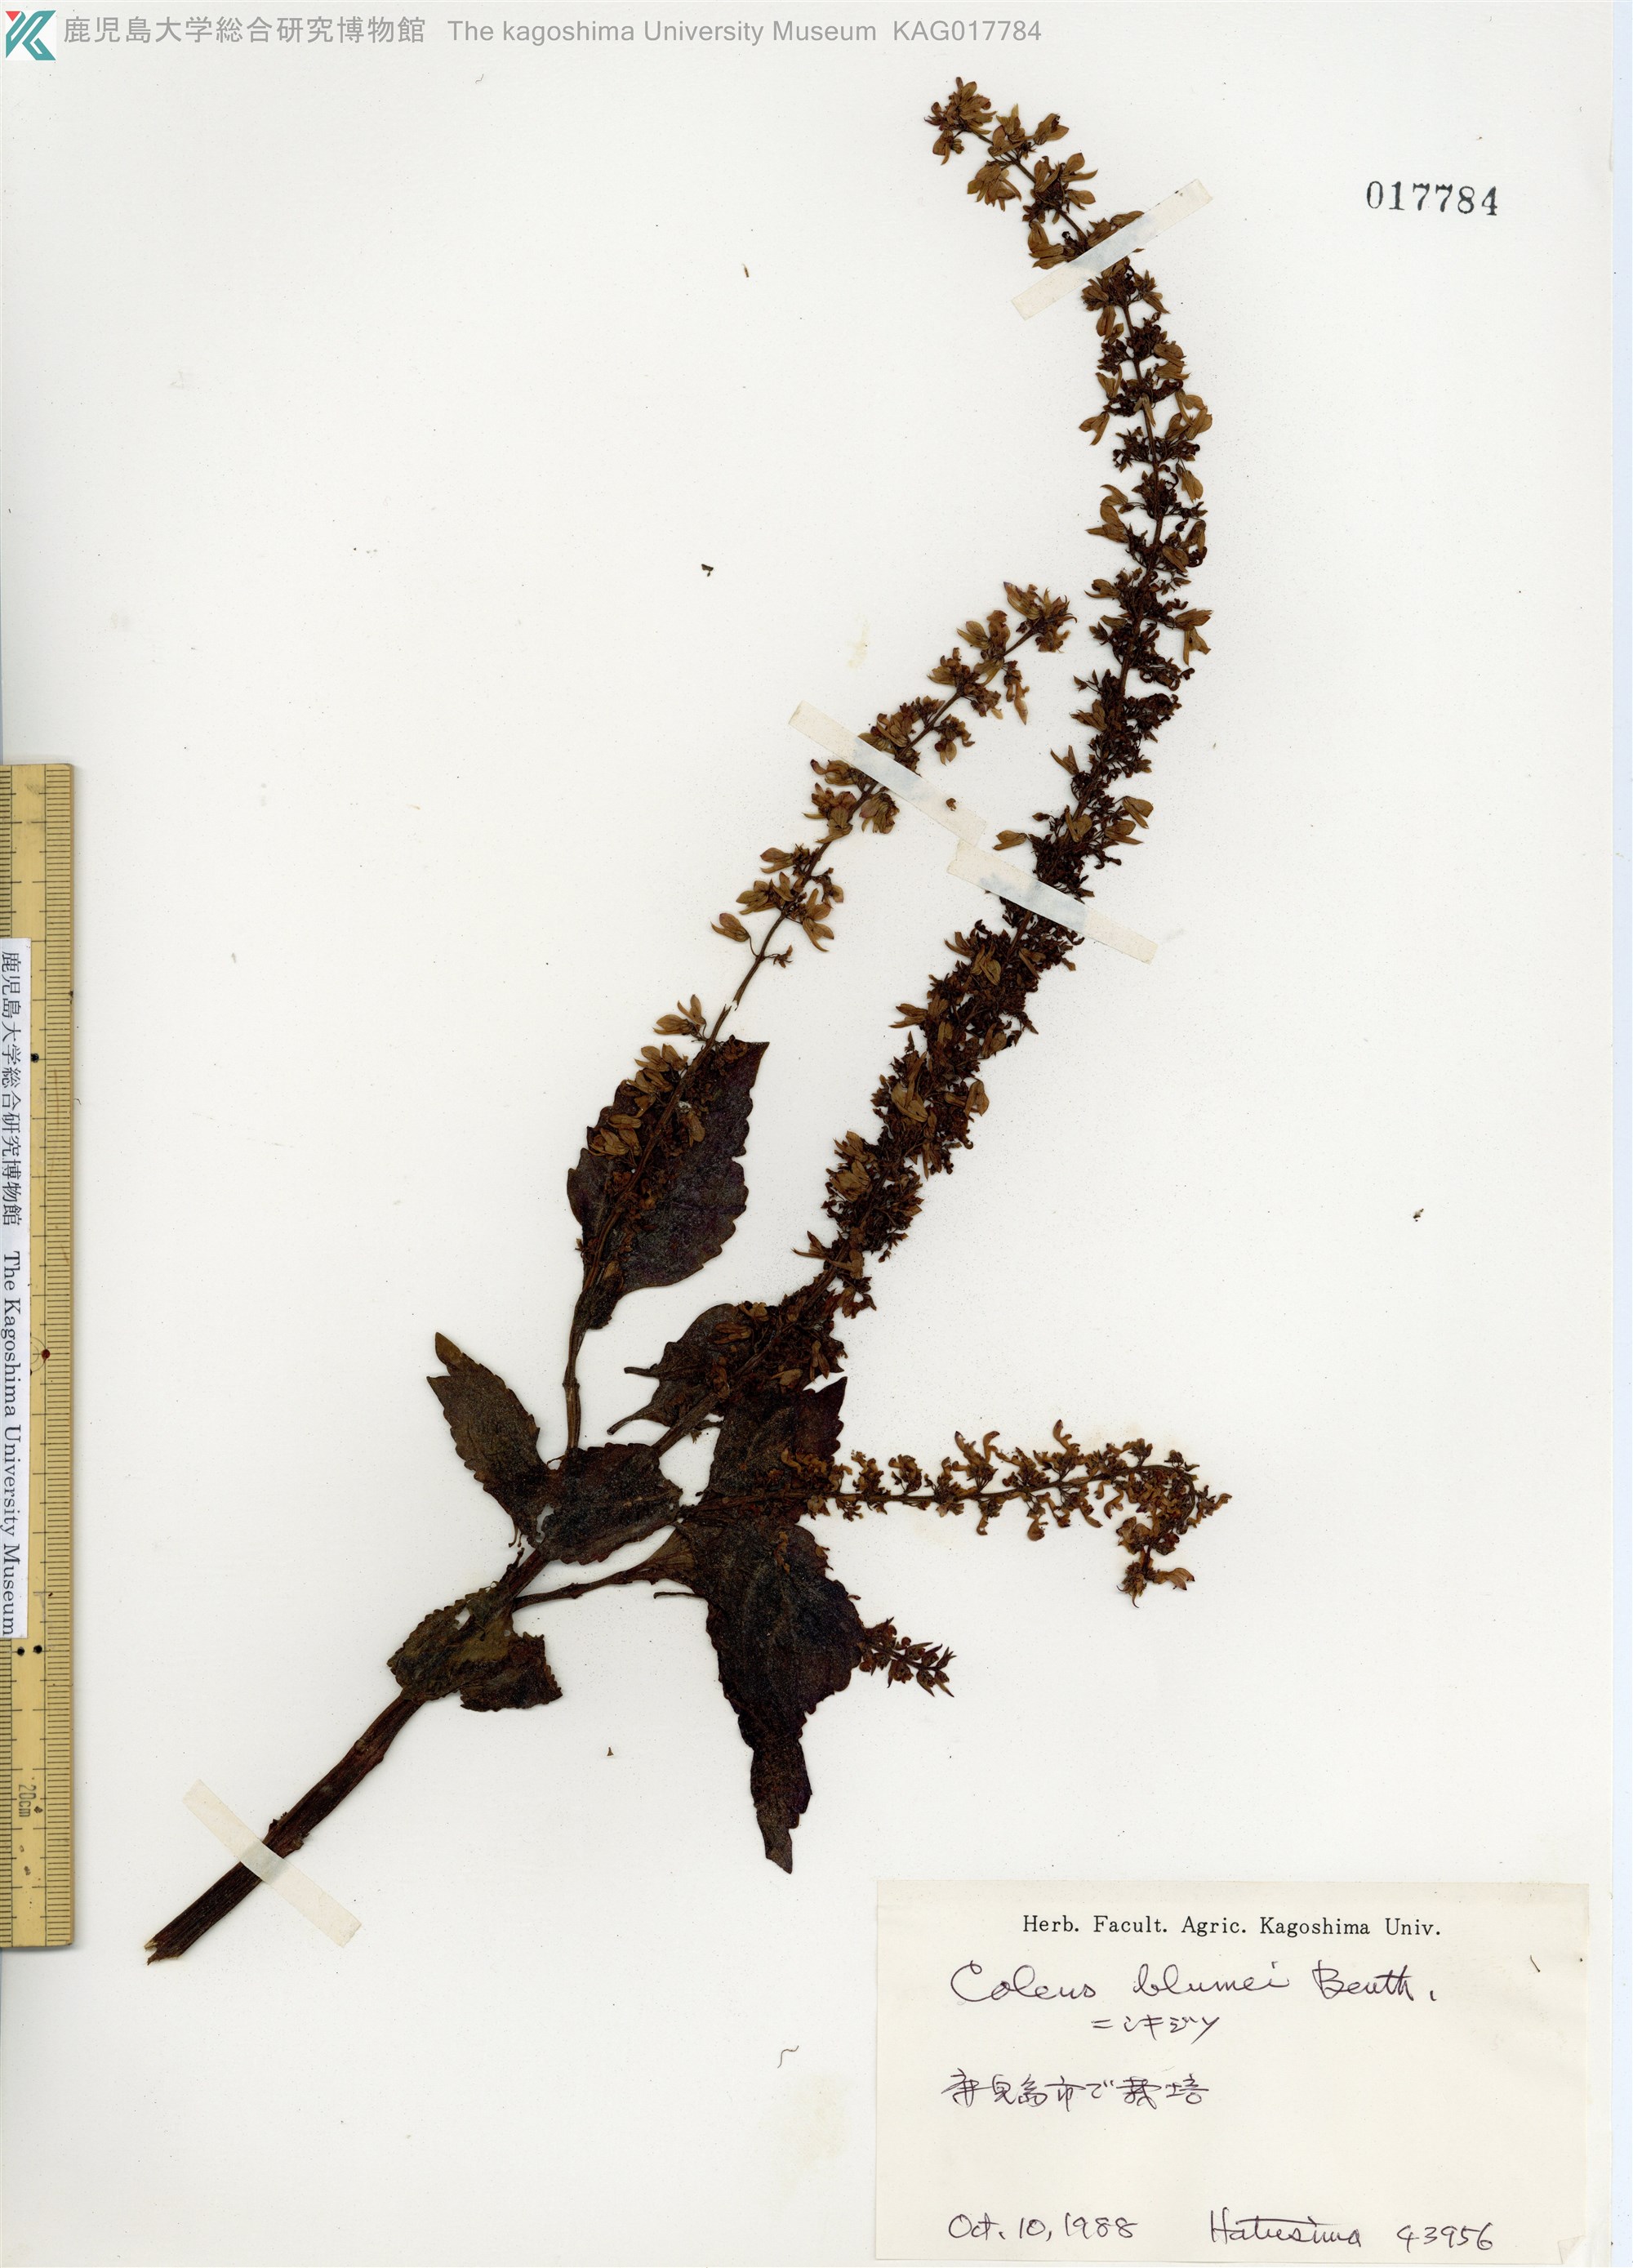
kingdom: Plantae
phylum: Tracheophyta
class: Magnoliopsida
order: Lamiales
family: Lamiaceae
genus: Coleus
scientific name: Coleus scutellarioides
